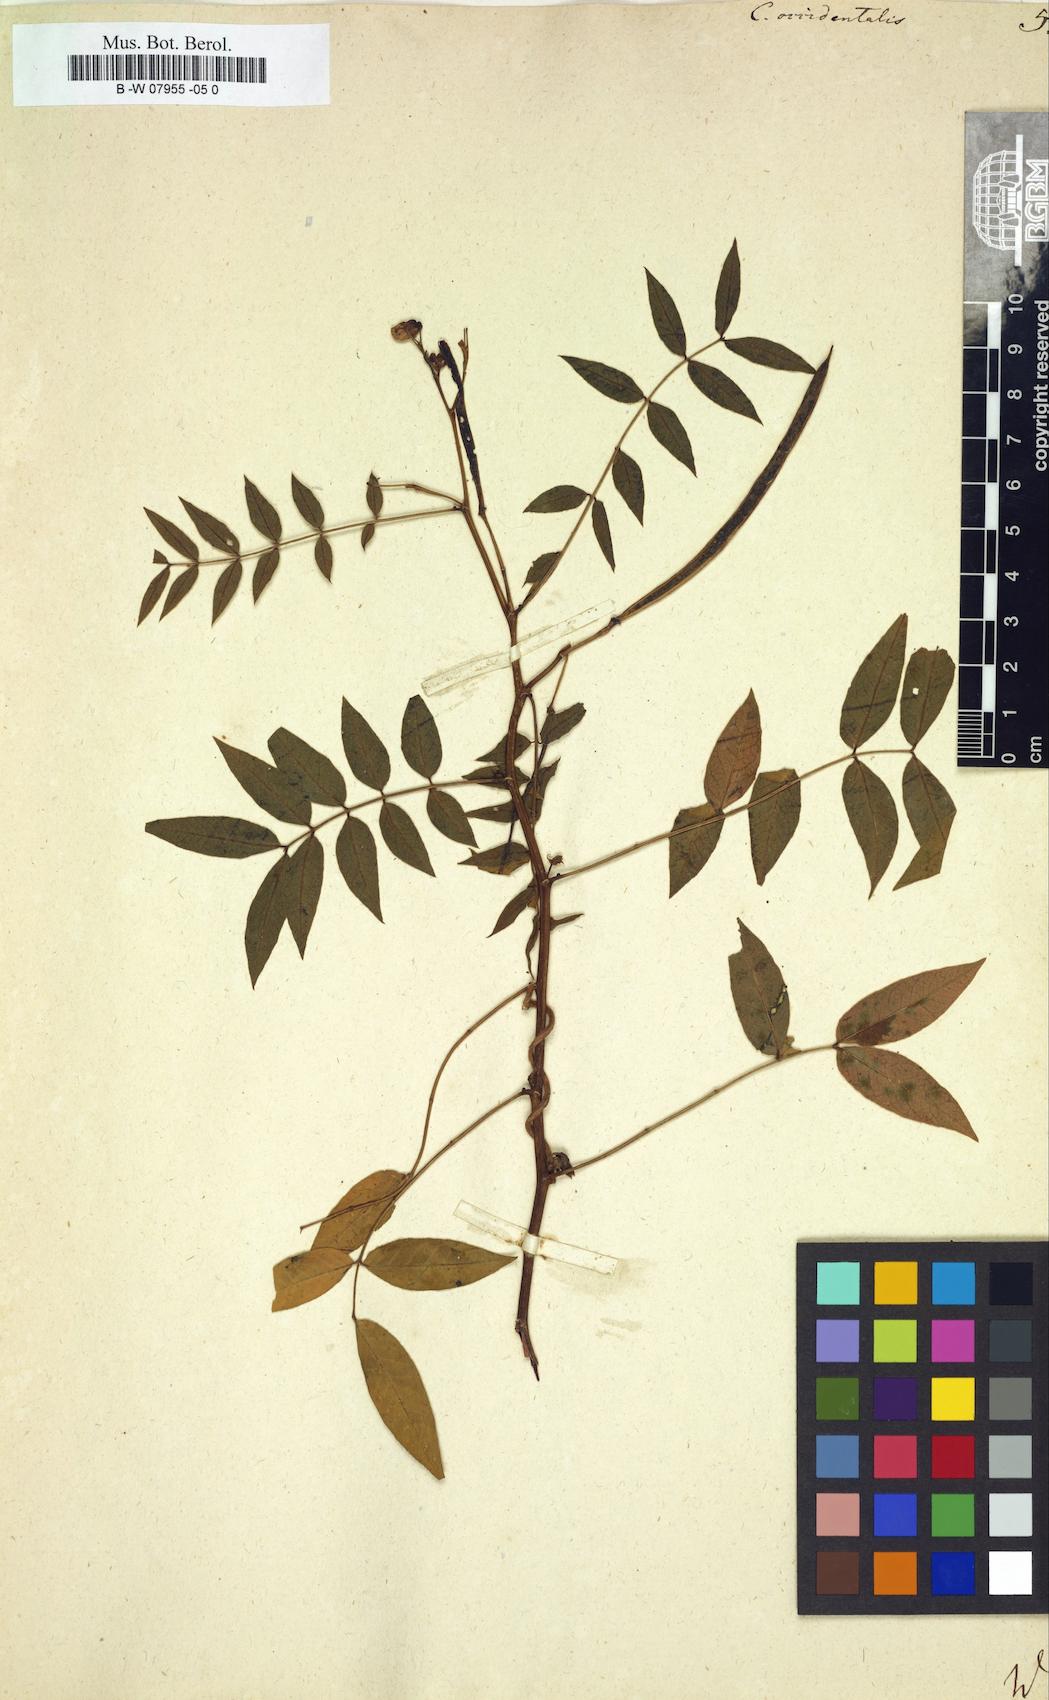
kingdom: Plantae
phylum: Tracheophyta
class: Magnoliopsida
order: Fabales
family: Fabaceae
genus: Senna
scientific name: Senna occidentalis
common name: Septicweed
